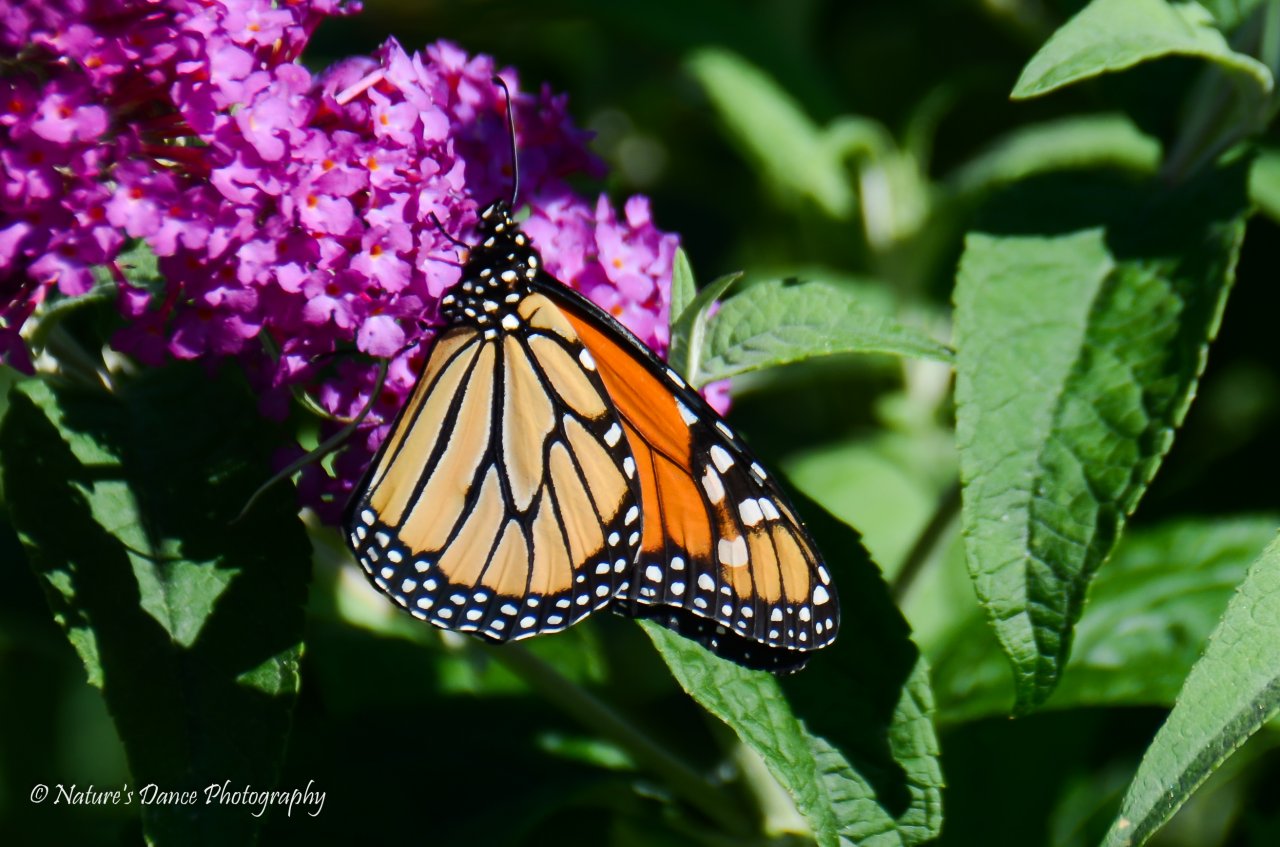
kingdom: Animalia
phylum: Arthropoda
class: Insecta
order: Lepidoptera
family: Nymphalidae
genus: Danaus
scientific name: Danaus plexippus
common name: Monarch
